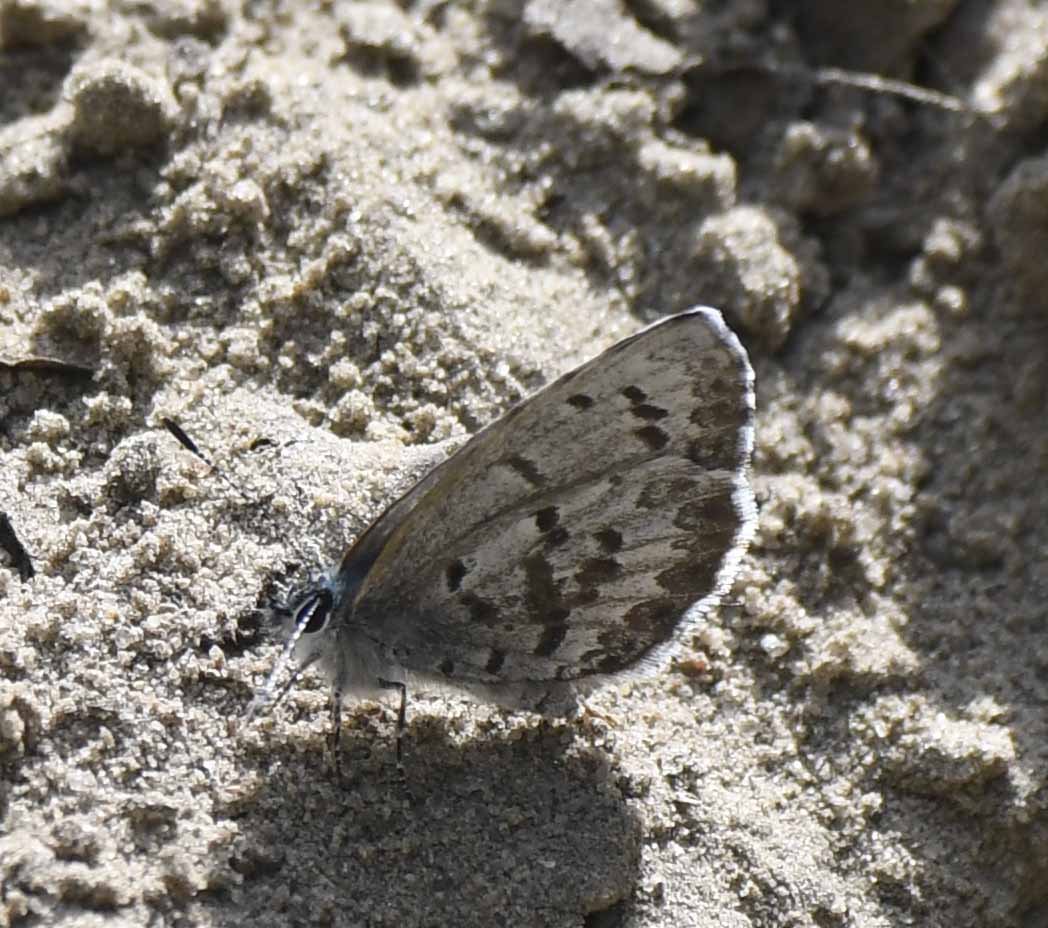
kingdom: Animalia
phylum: Arthropoda
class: Insecta
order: Lepidoptera
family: Lycaenidae
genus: Celastrina
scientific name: Celastrina
